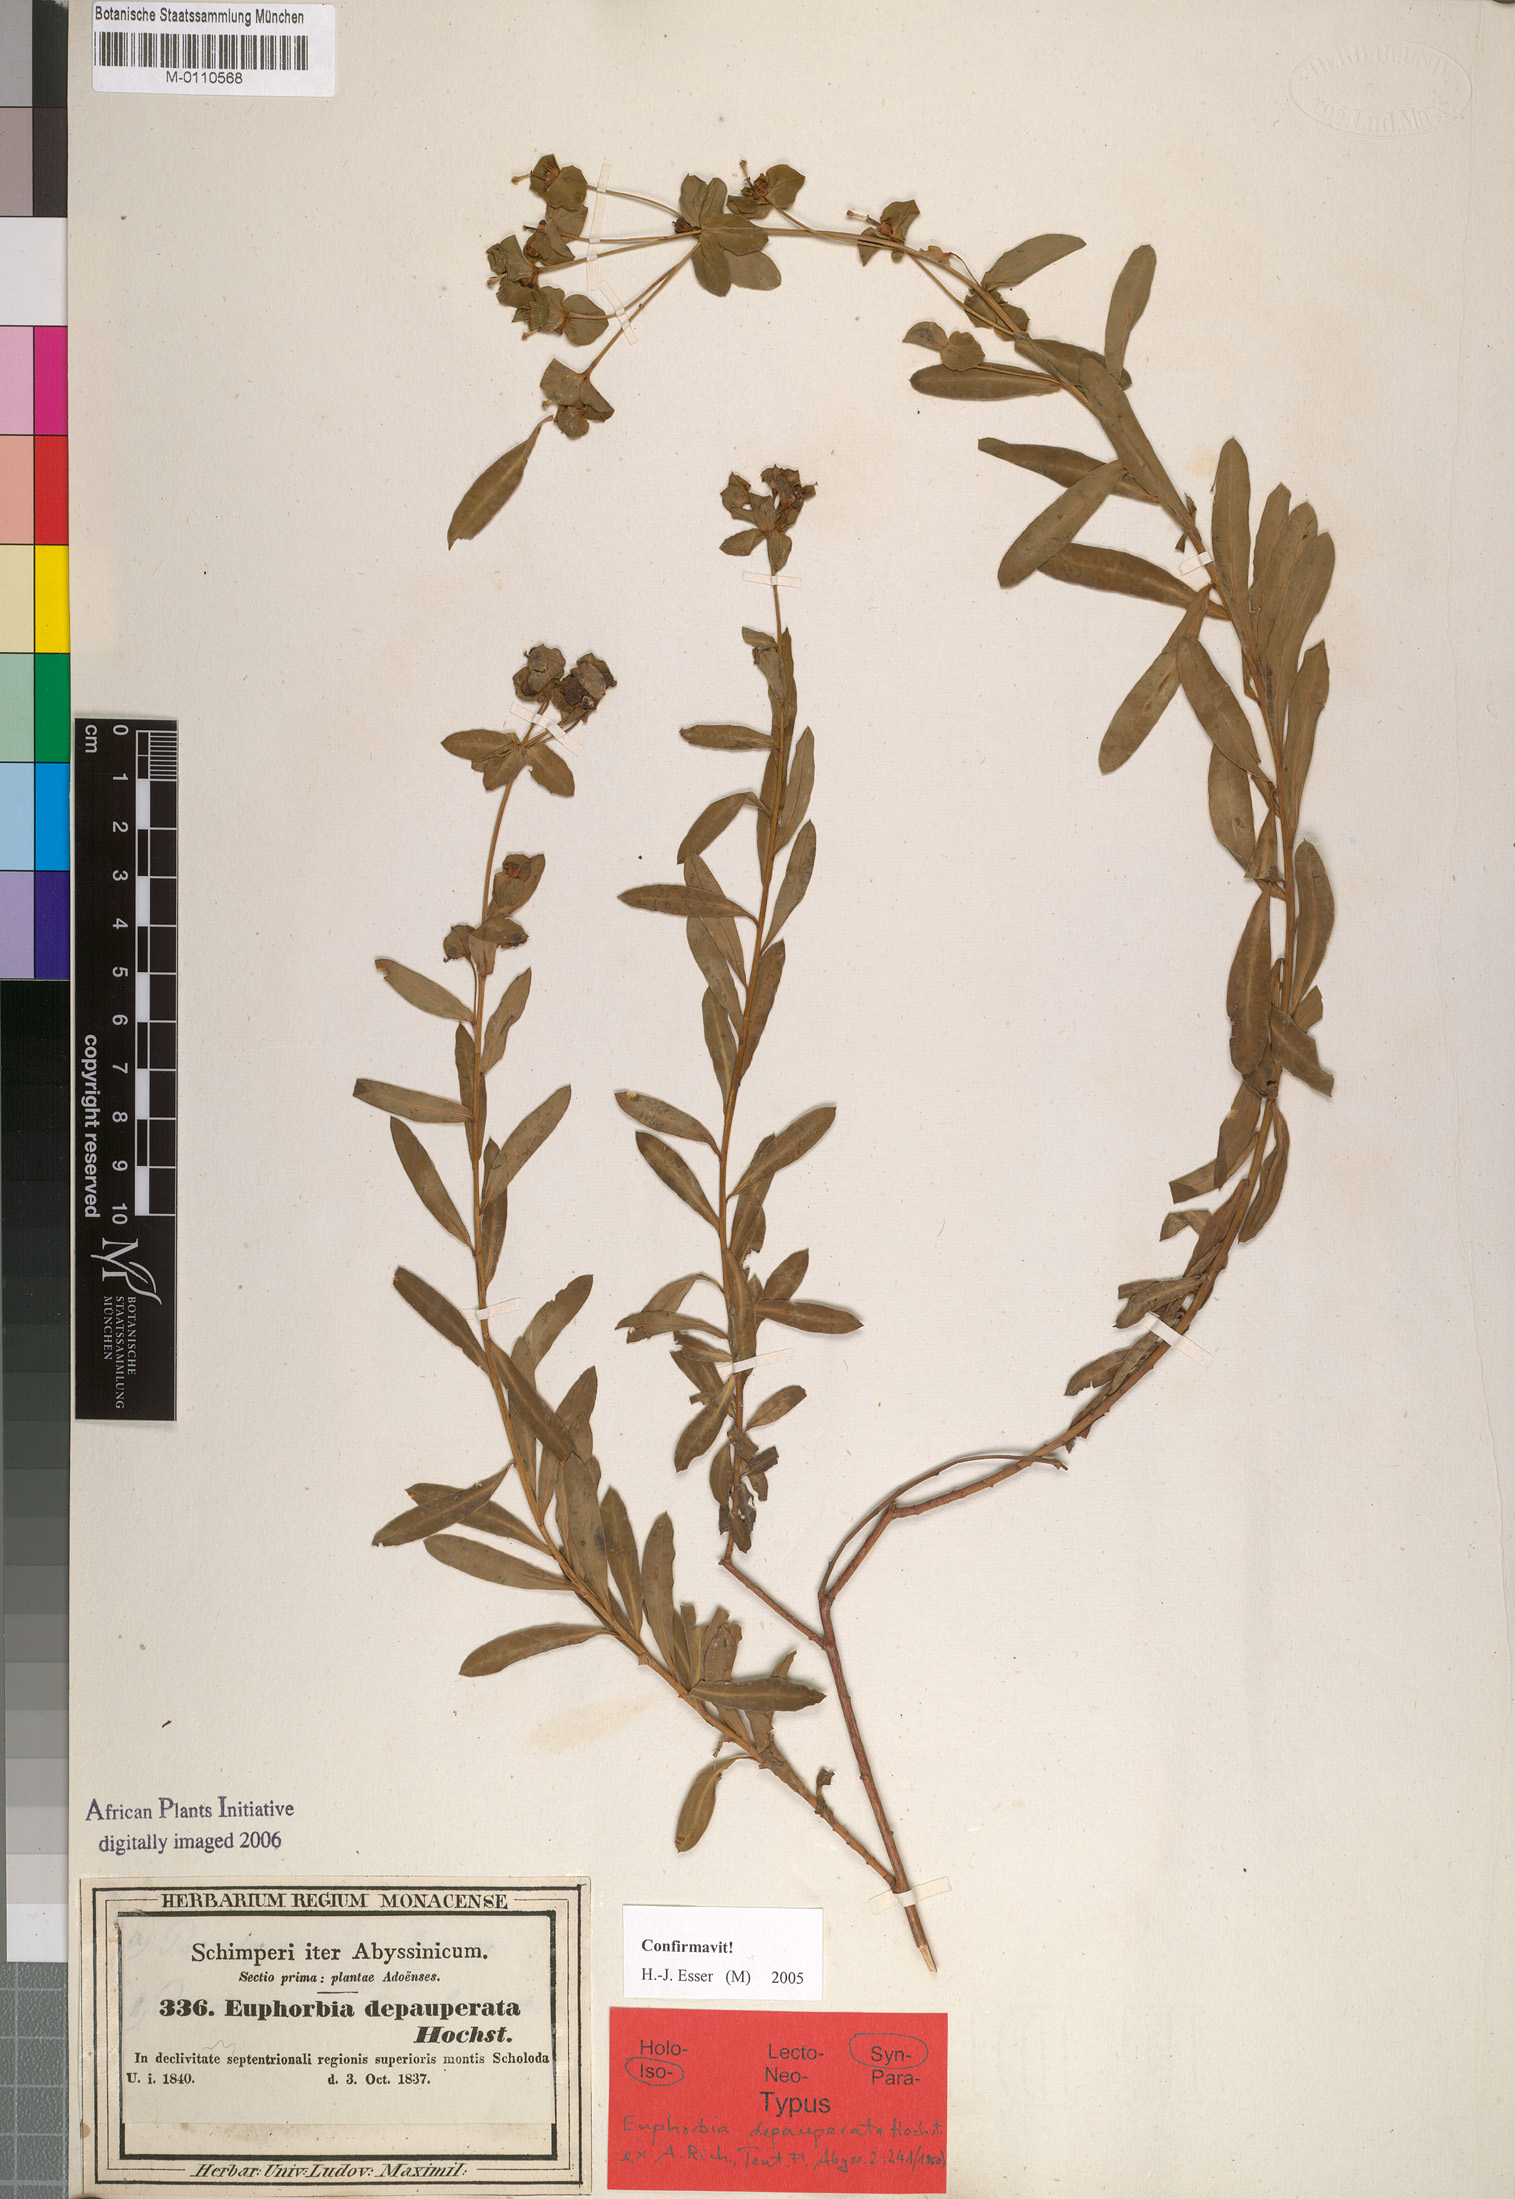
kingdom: Plantae
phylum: Tracheophyta
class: Magnoliopsida
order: Malpighiales
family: Euphorbiaceae
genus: Euphorbia
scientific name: Euphorbia depauperata
